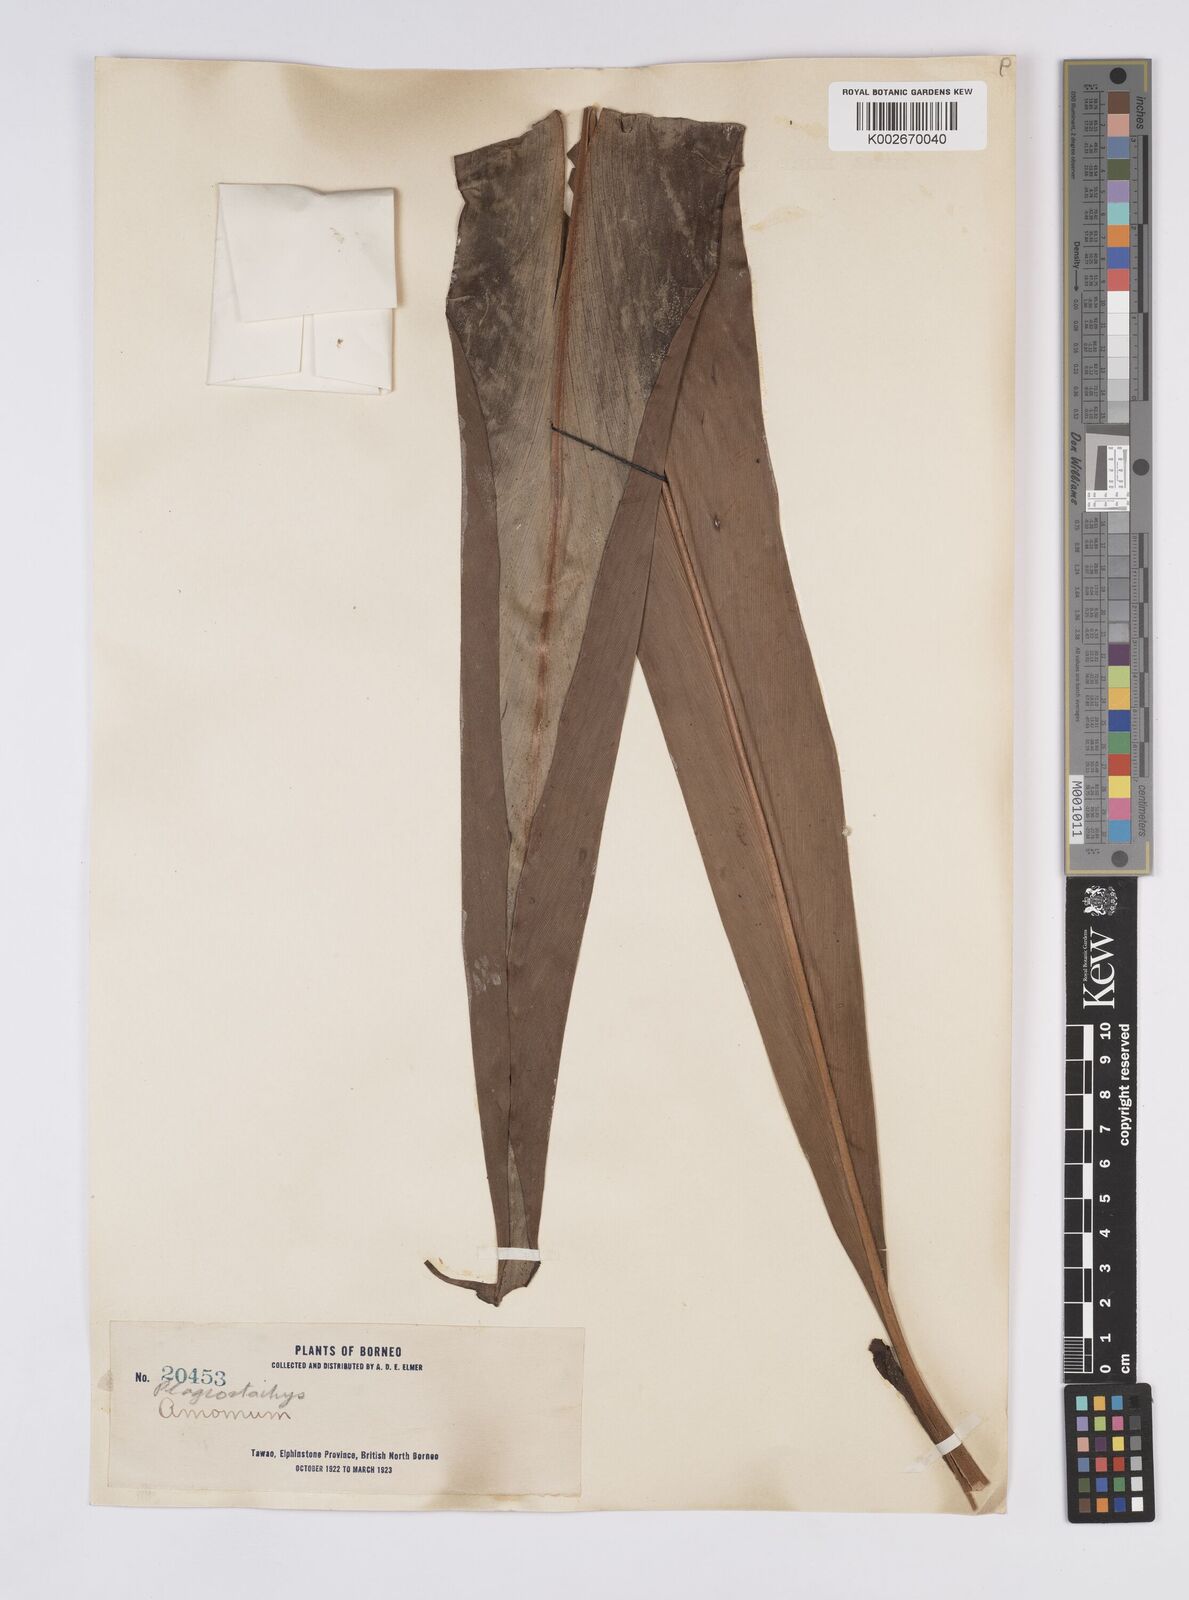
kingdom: Plantae
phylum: Tracheophyta
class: Liliopsida
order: Zingiberales
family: Zingiberaceae
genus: Plagiostachys
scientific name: Plagiostachys
